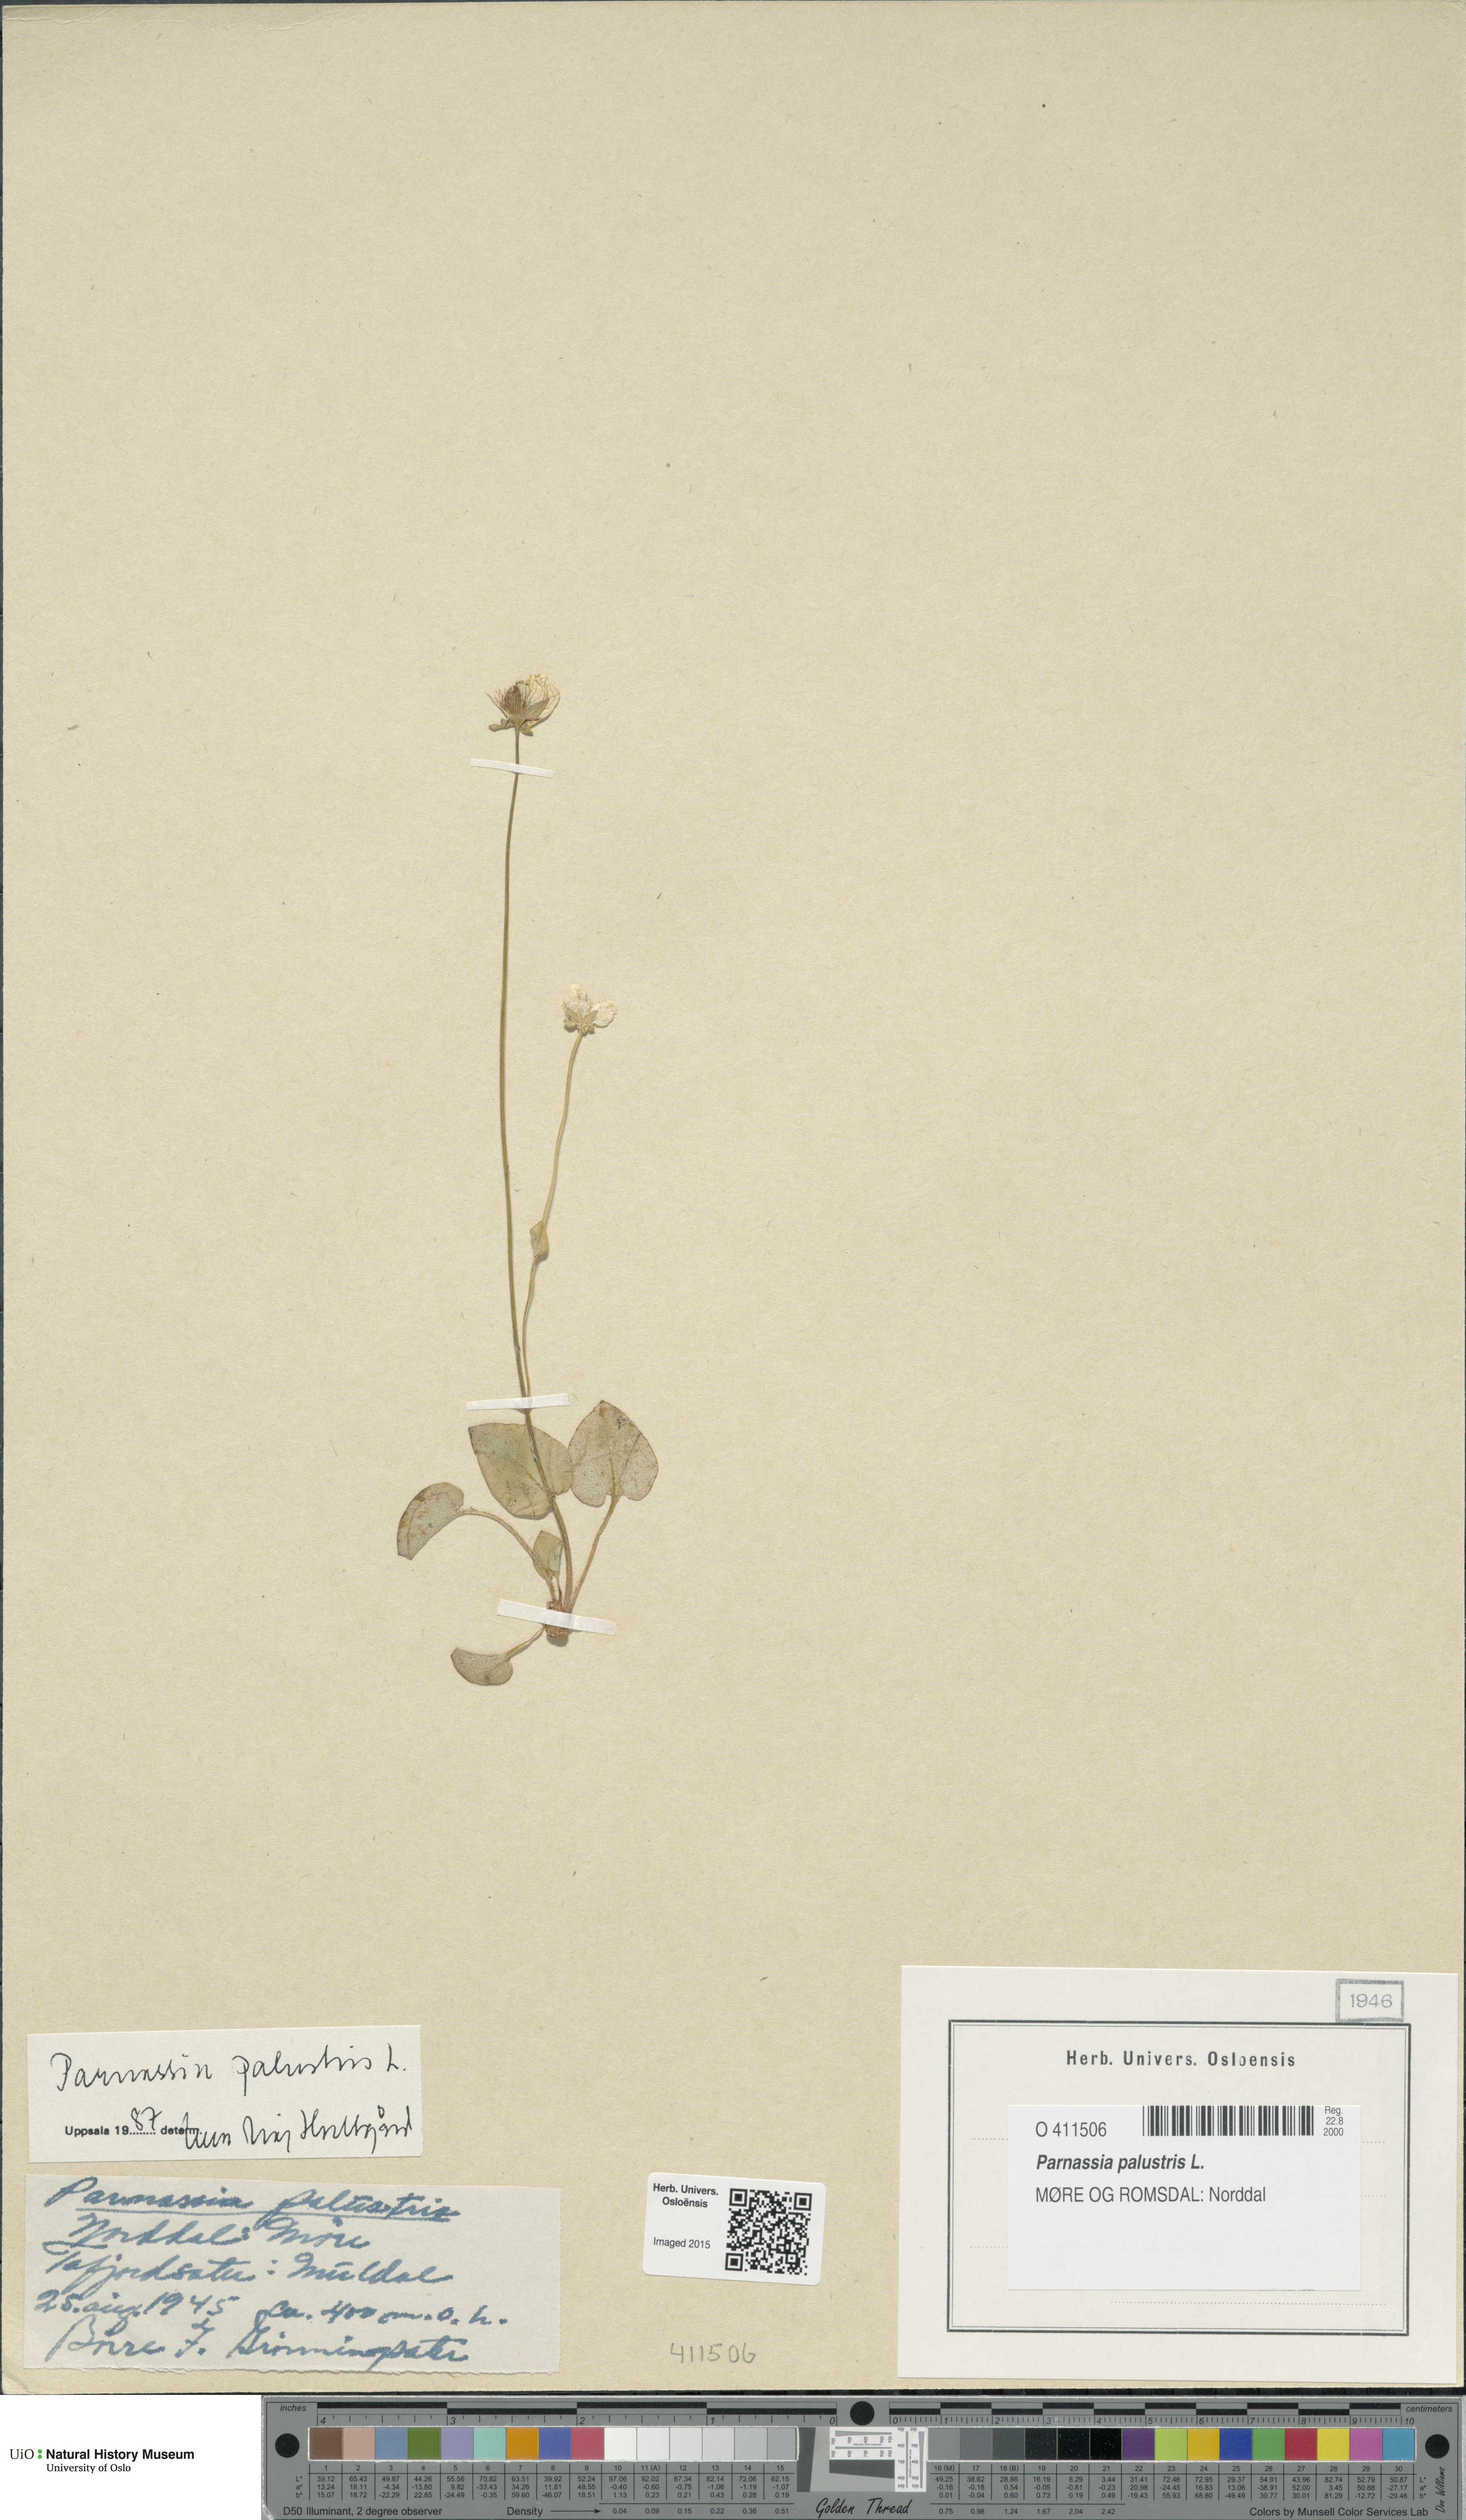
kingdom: Plantae
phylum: Tracheophyta
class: Magnoliopsida
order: Celastrales
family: Parnassiaceae
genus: Parnassia
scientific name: Parnassia palustris
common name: Grass-of-parnassus
